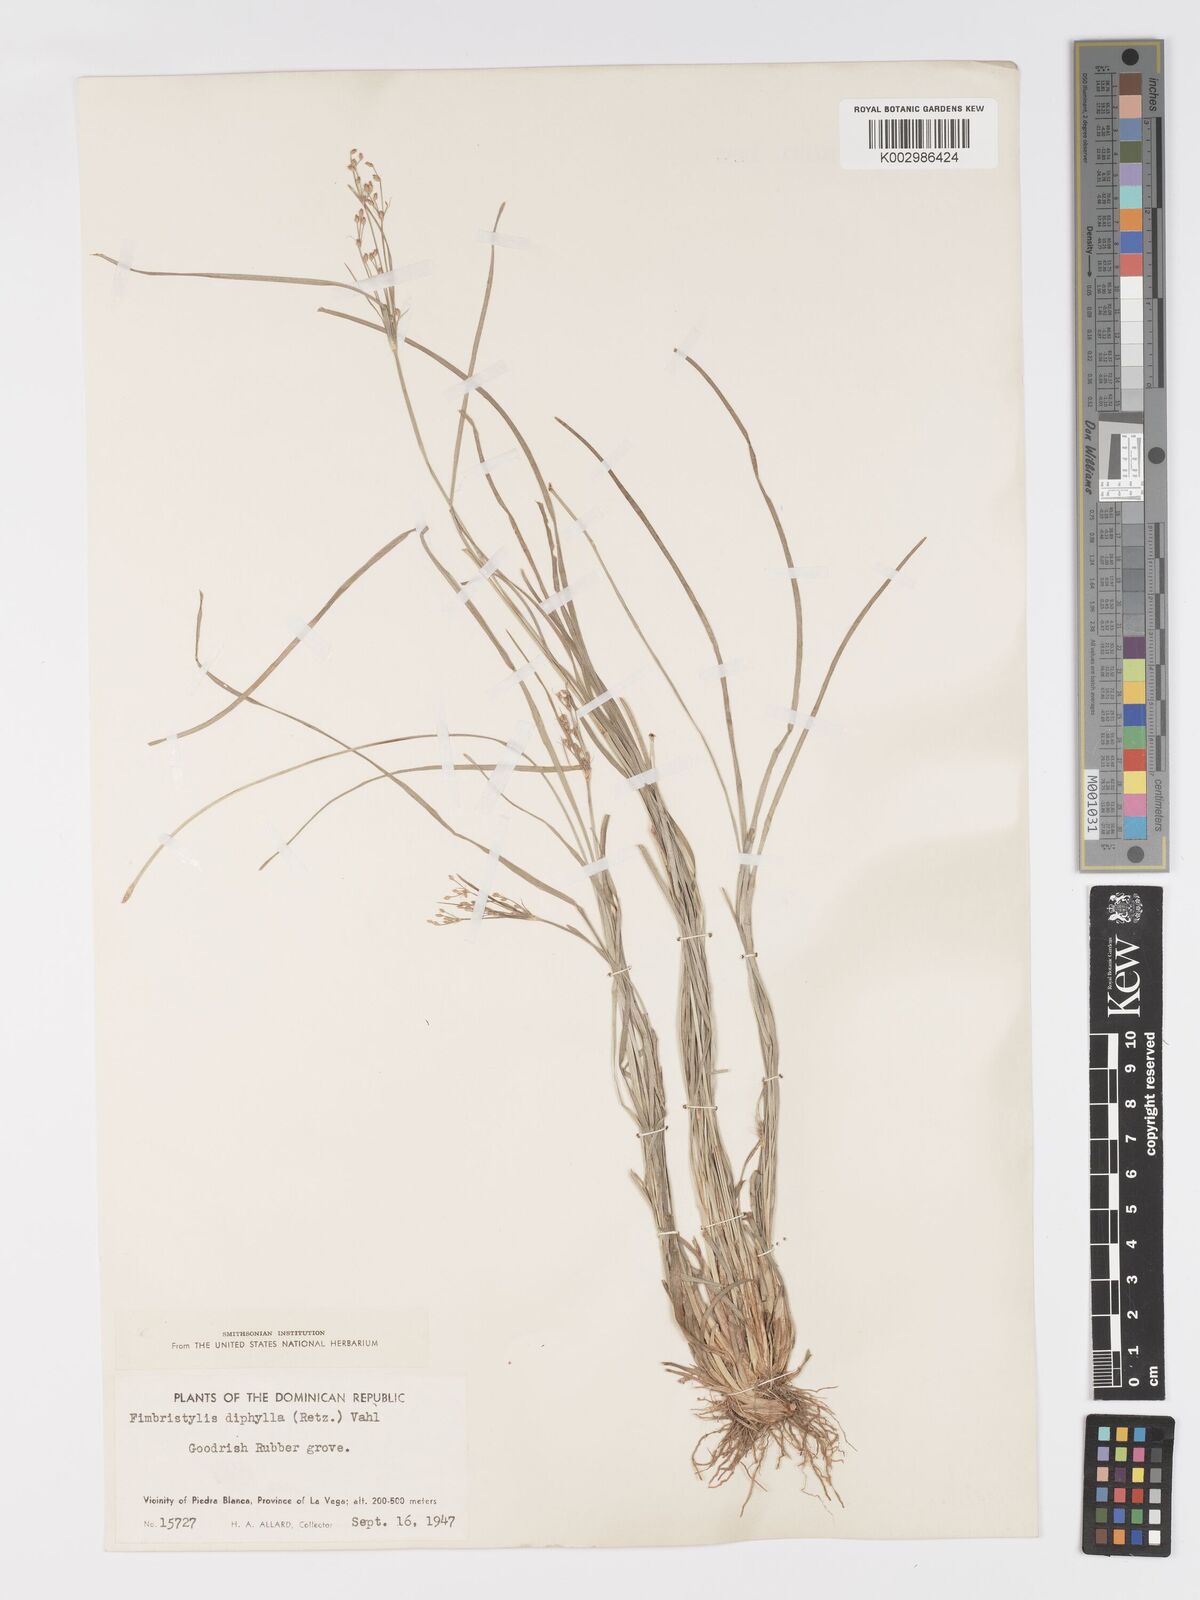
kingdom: Plantae
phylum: Tracheophyta
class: Liliopsida
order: Poales
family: Cyperaceae
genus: Fimbristylis
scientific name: Fimbristylis dichotoma
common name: Forked fimbry
